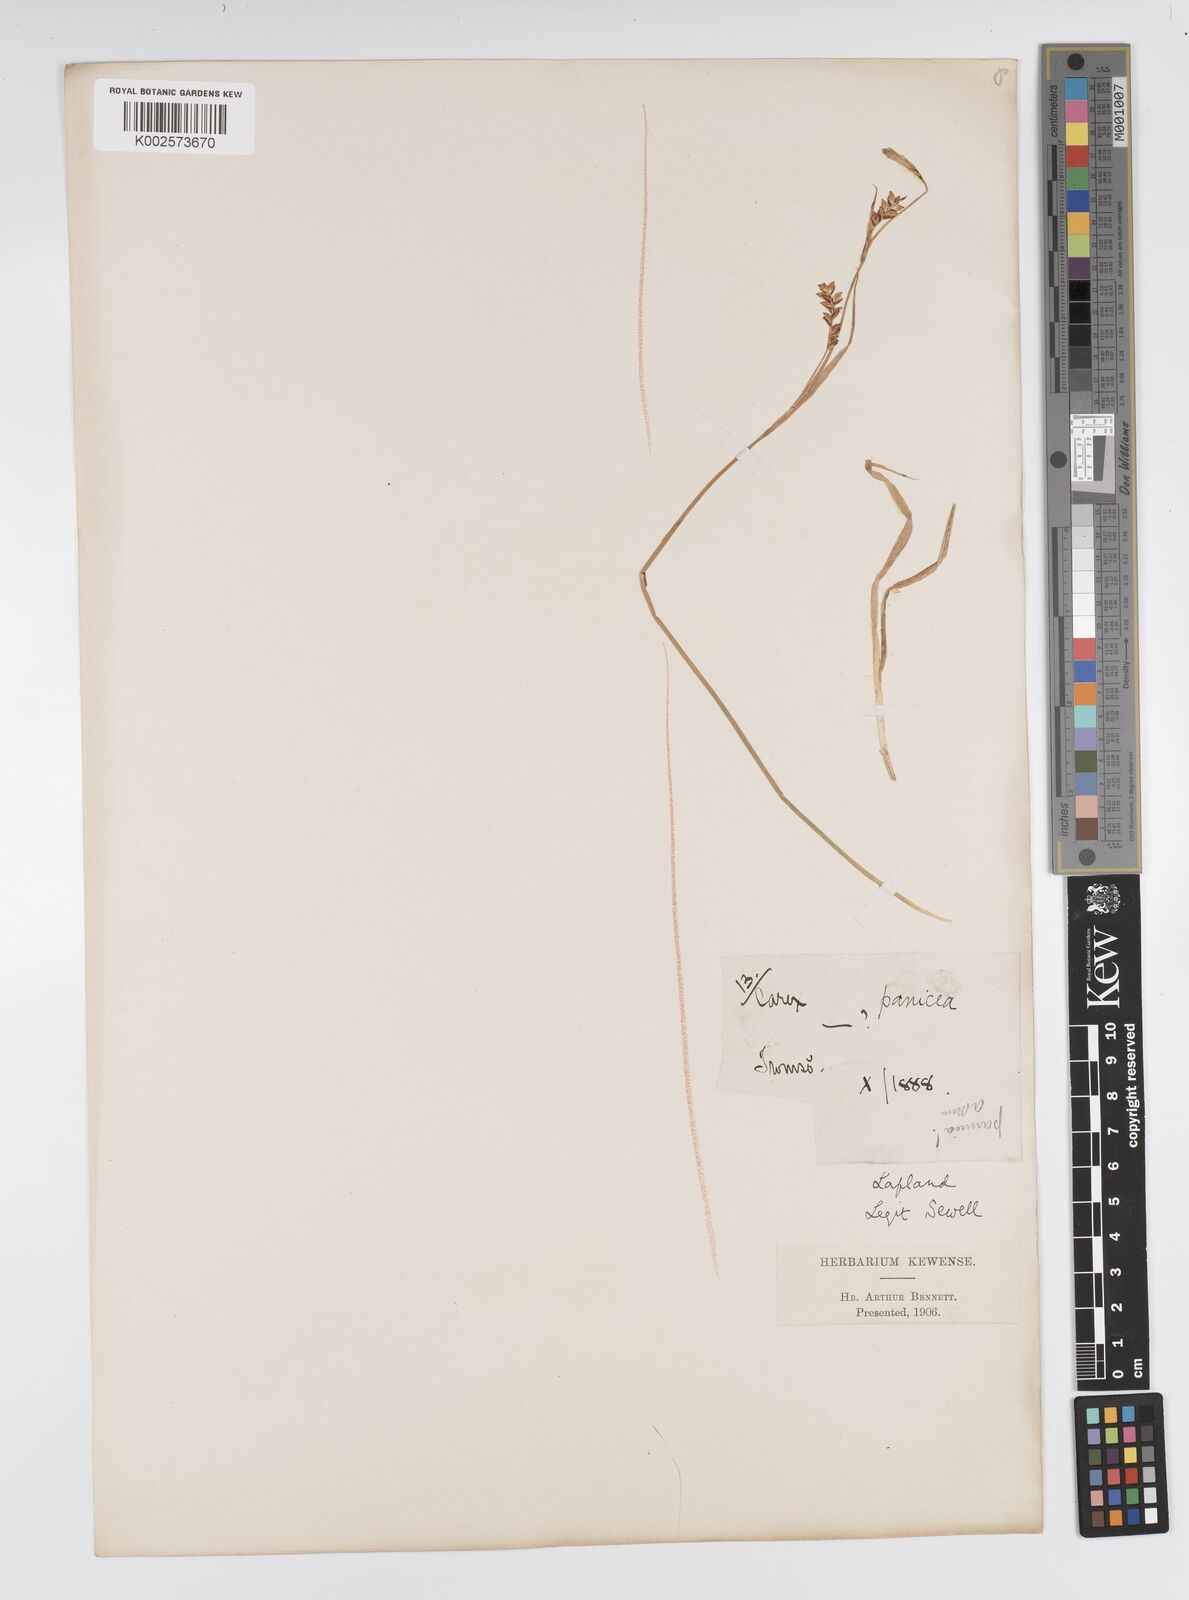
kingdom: Plantae
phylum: Tracheophyta
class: Liliopsida
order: Poales
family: Cyperaceae
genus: Carex
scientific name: Carex panicea
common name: Carnation sedge
